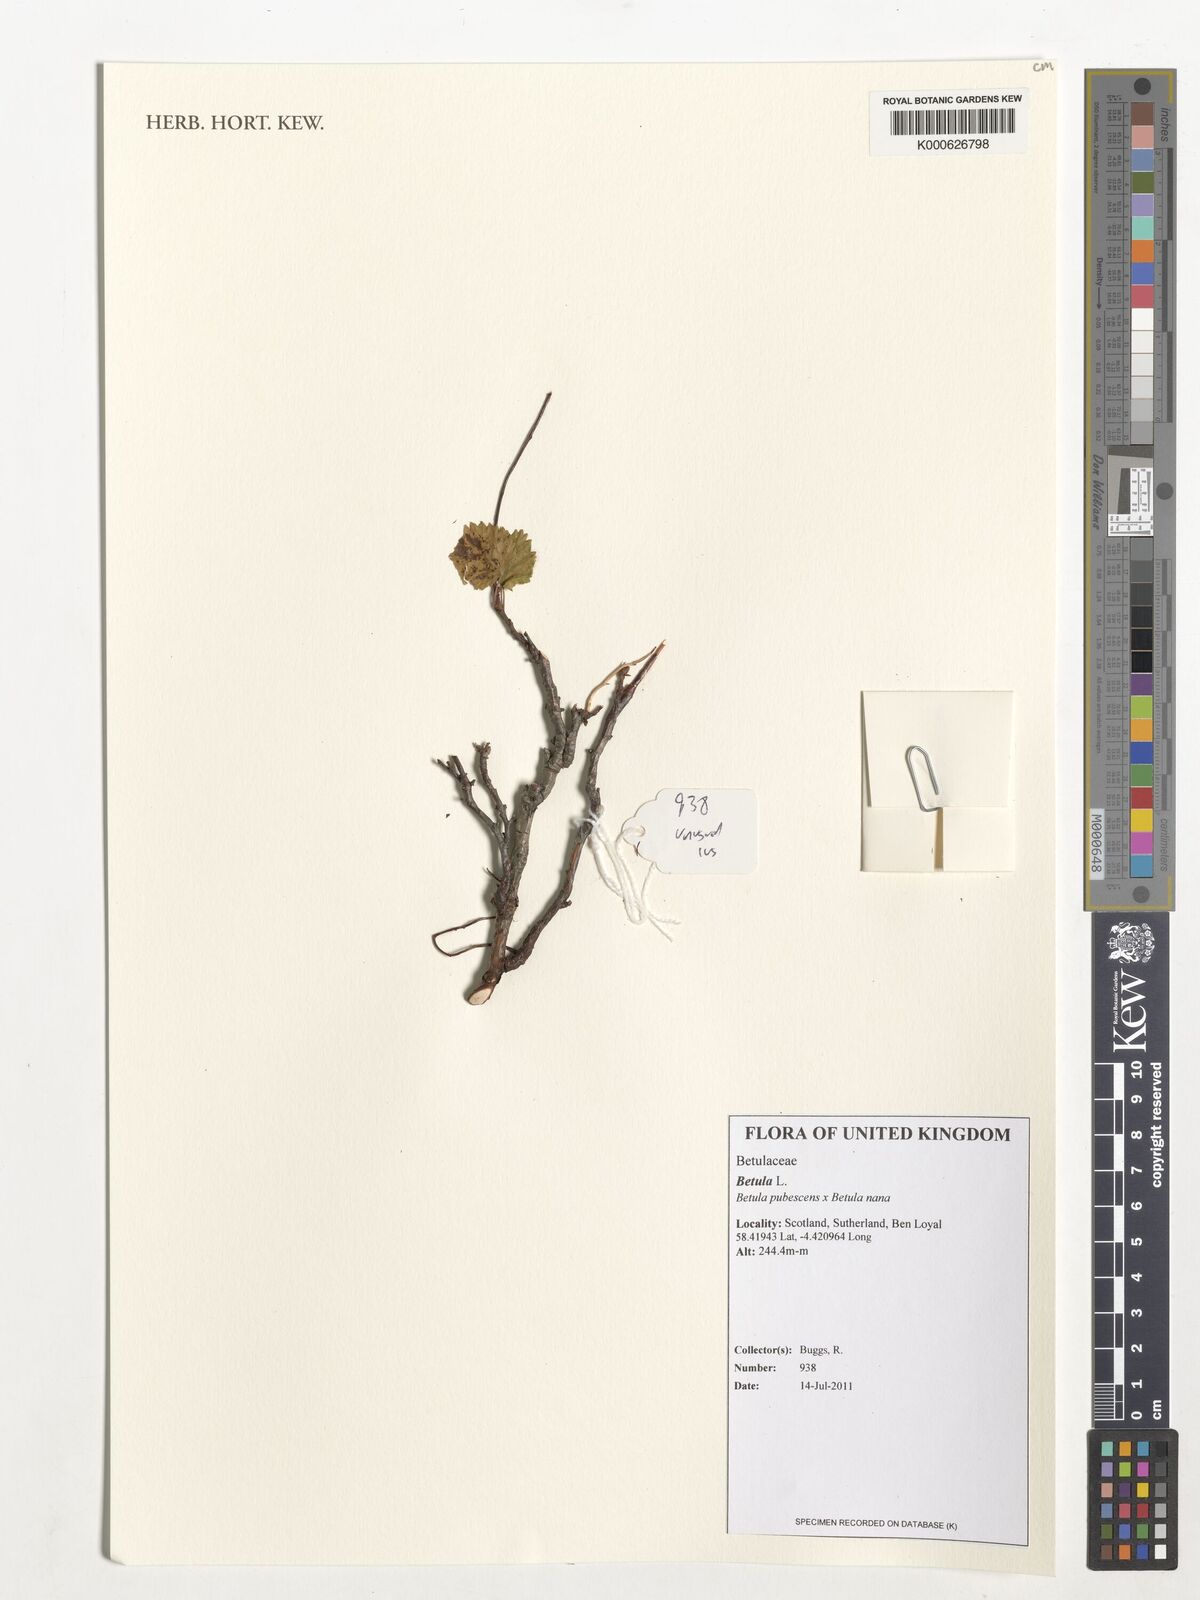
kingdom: Plantae
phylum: Tracheophyta
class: Magnoliopsida
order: Fagales
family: Betulaceae
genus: Betula
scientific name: Betula
